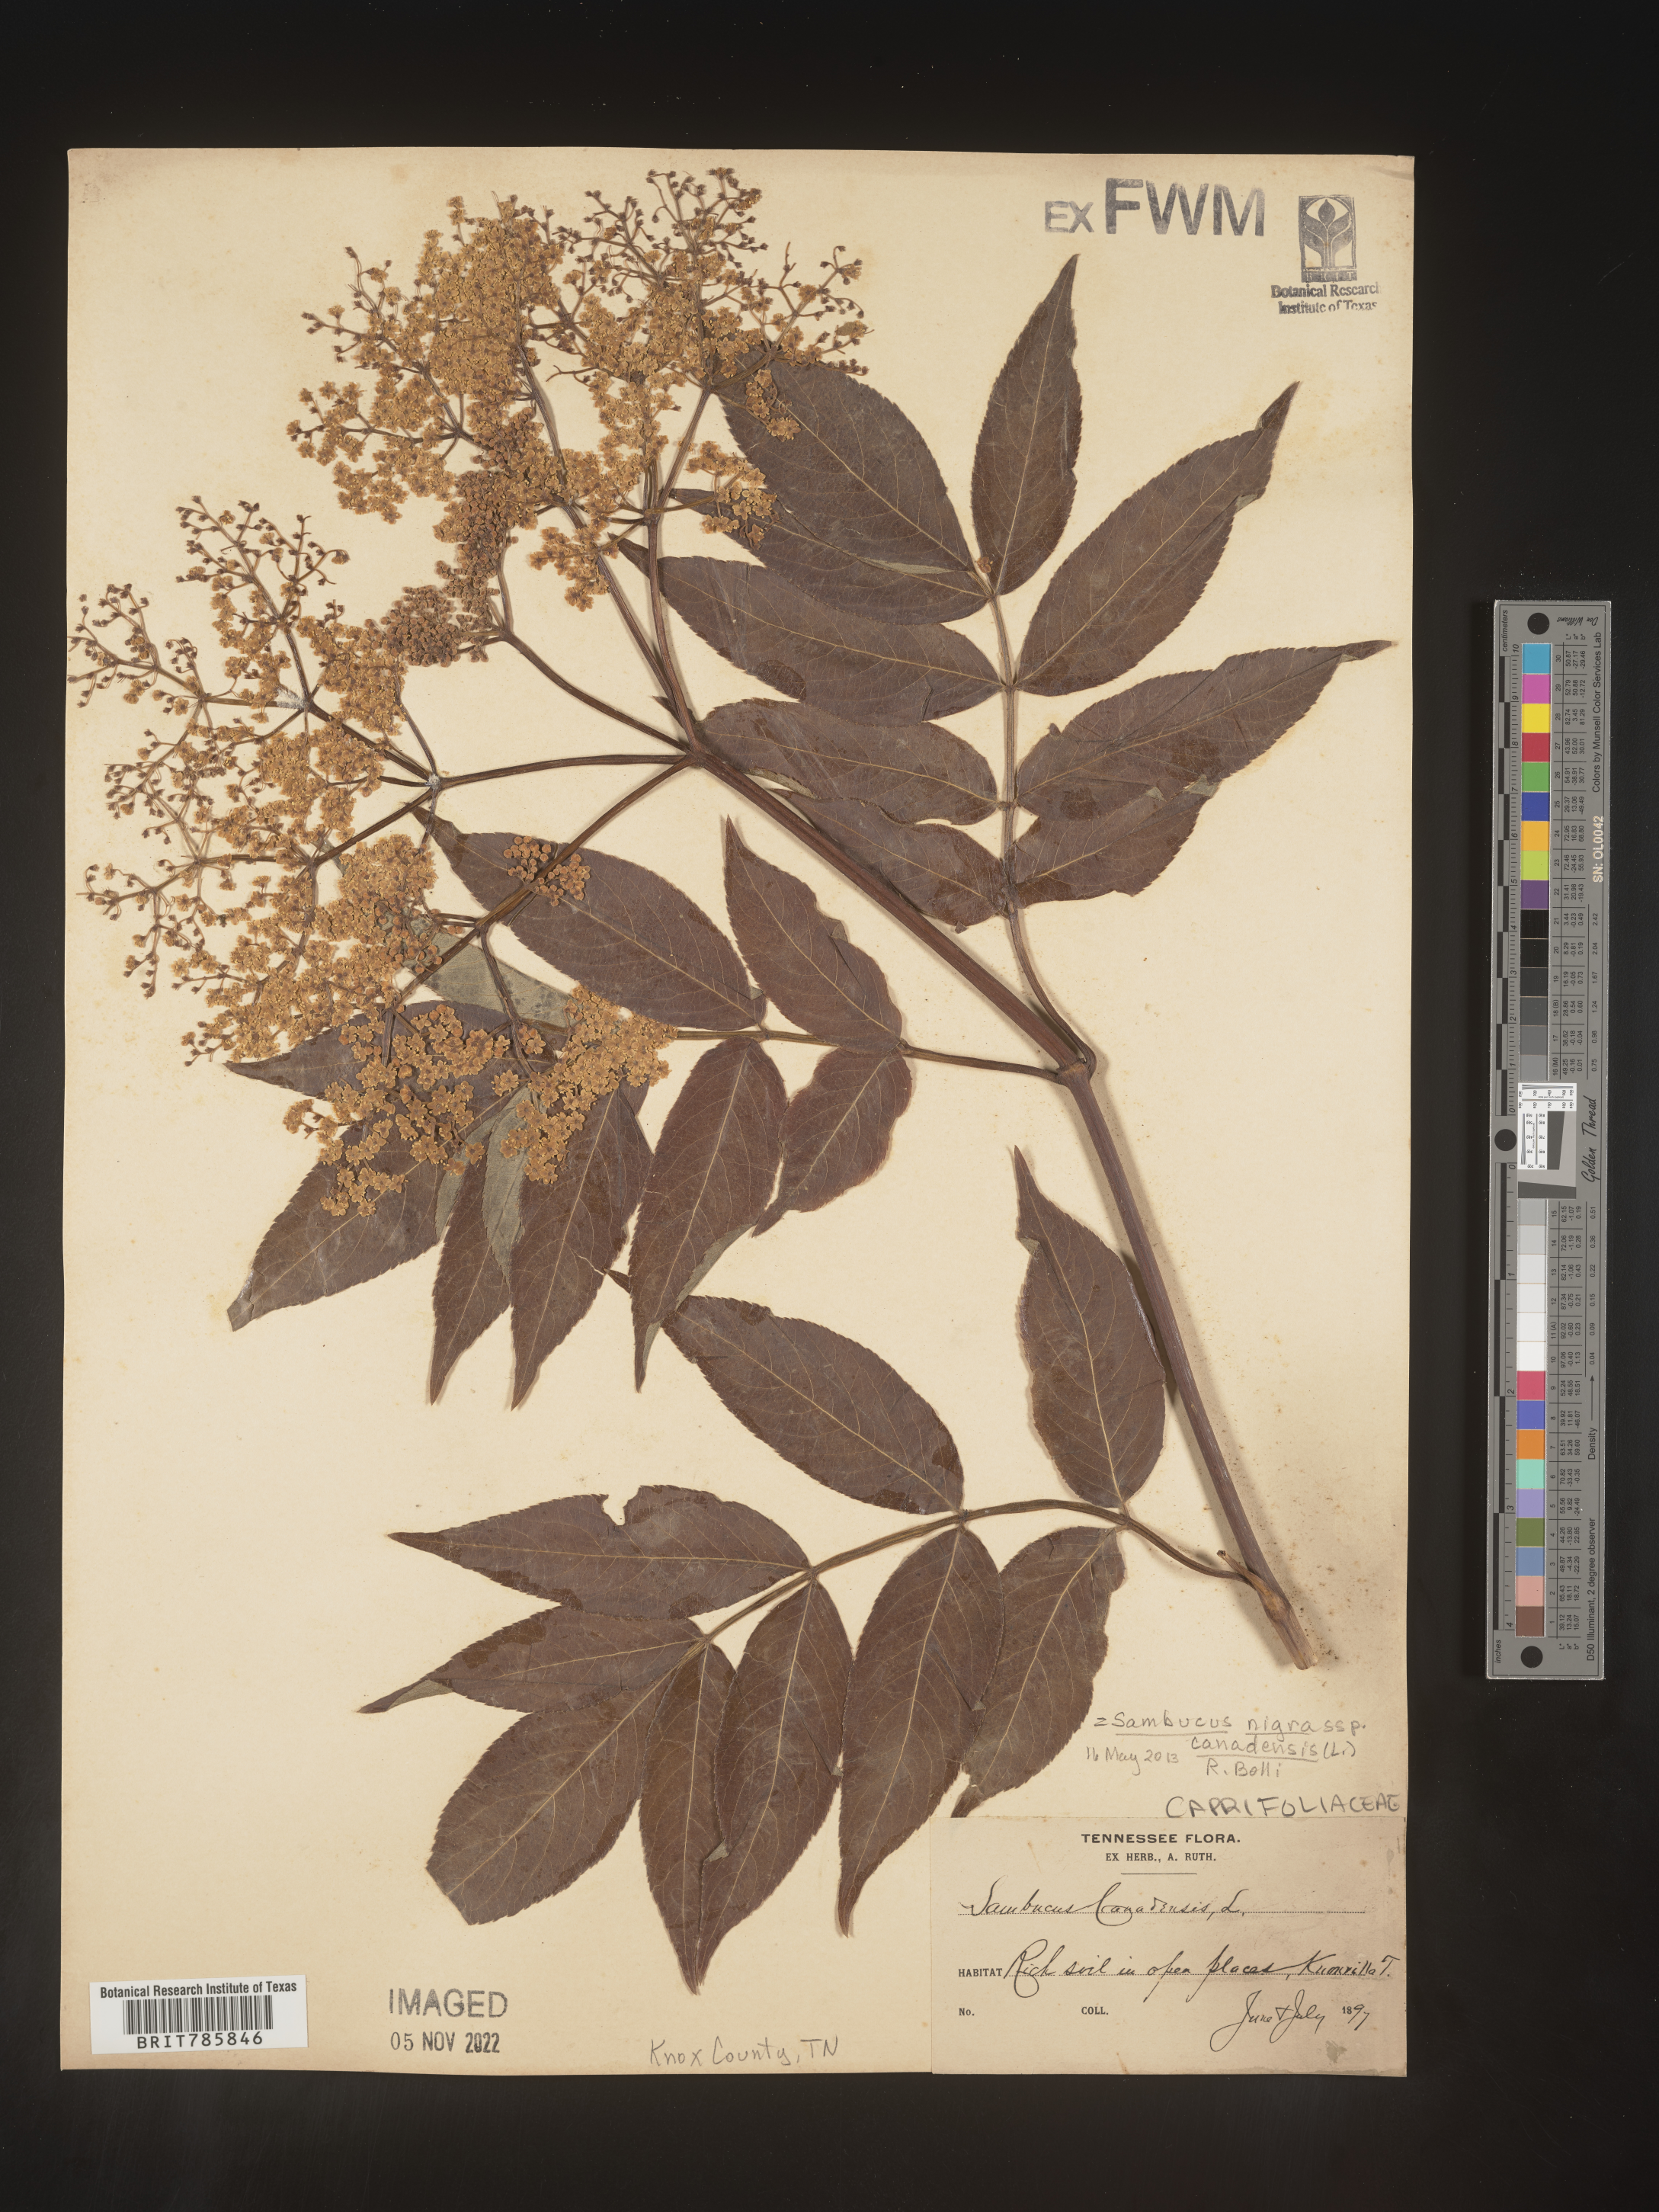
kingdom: Plantae
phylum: Tracheophyta
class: Magnoliopsida
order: Dipsacales
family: Viburnaceae
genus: Sambucus
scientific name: Sambucus nigra
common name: Elder
